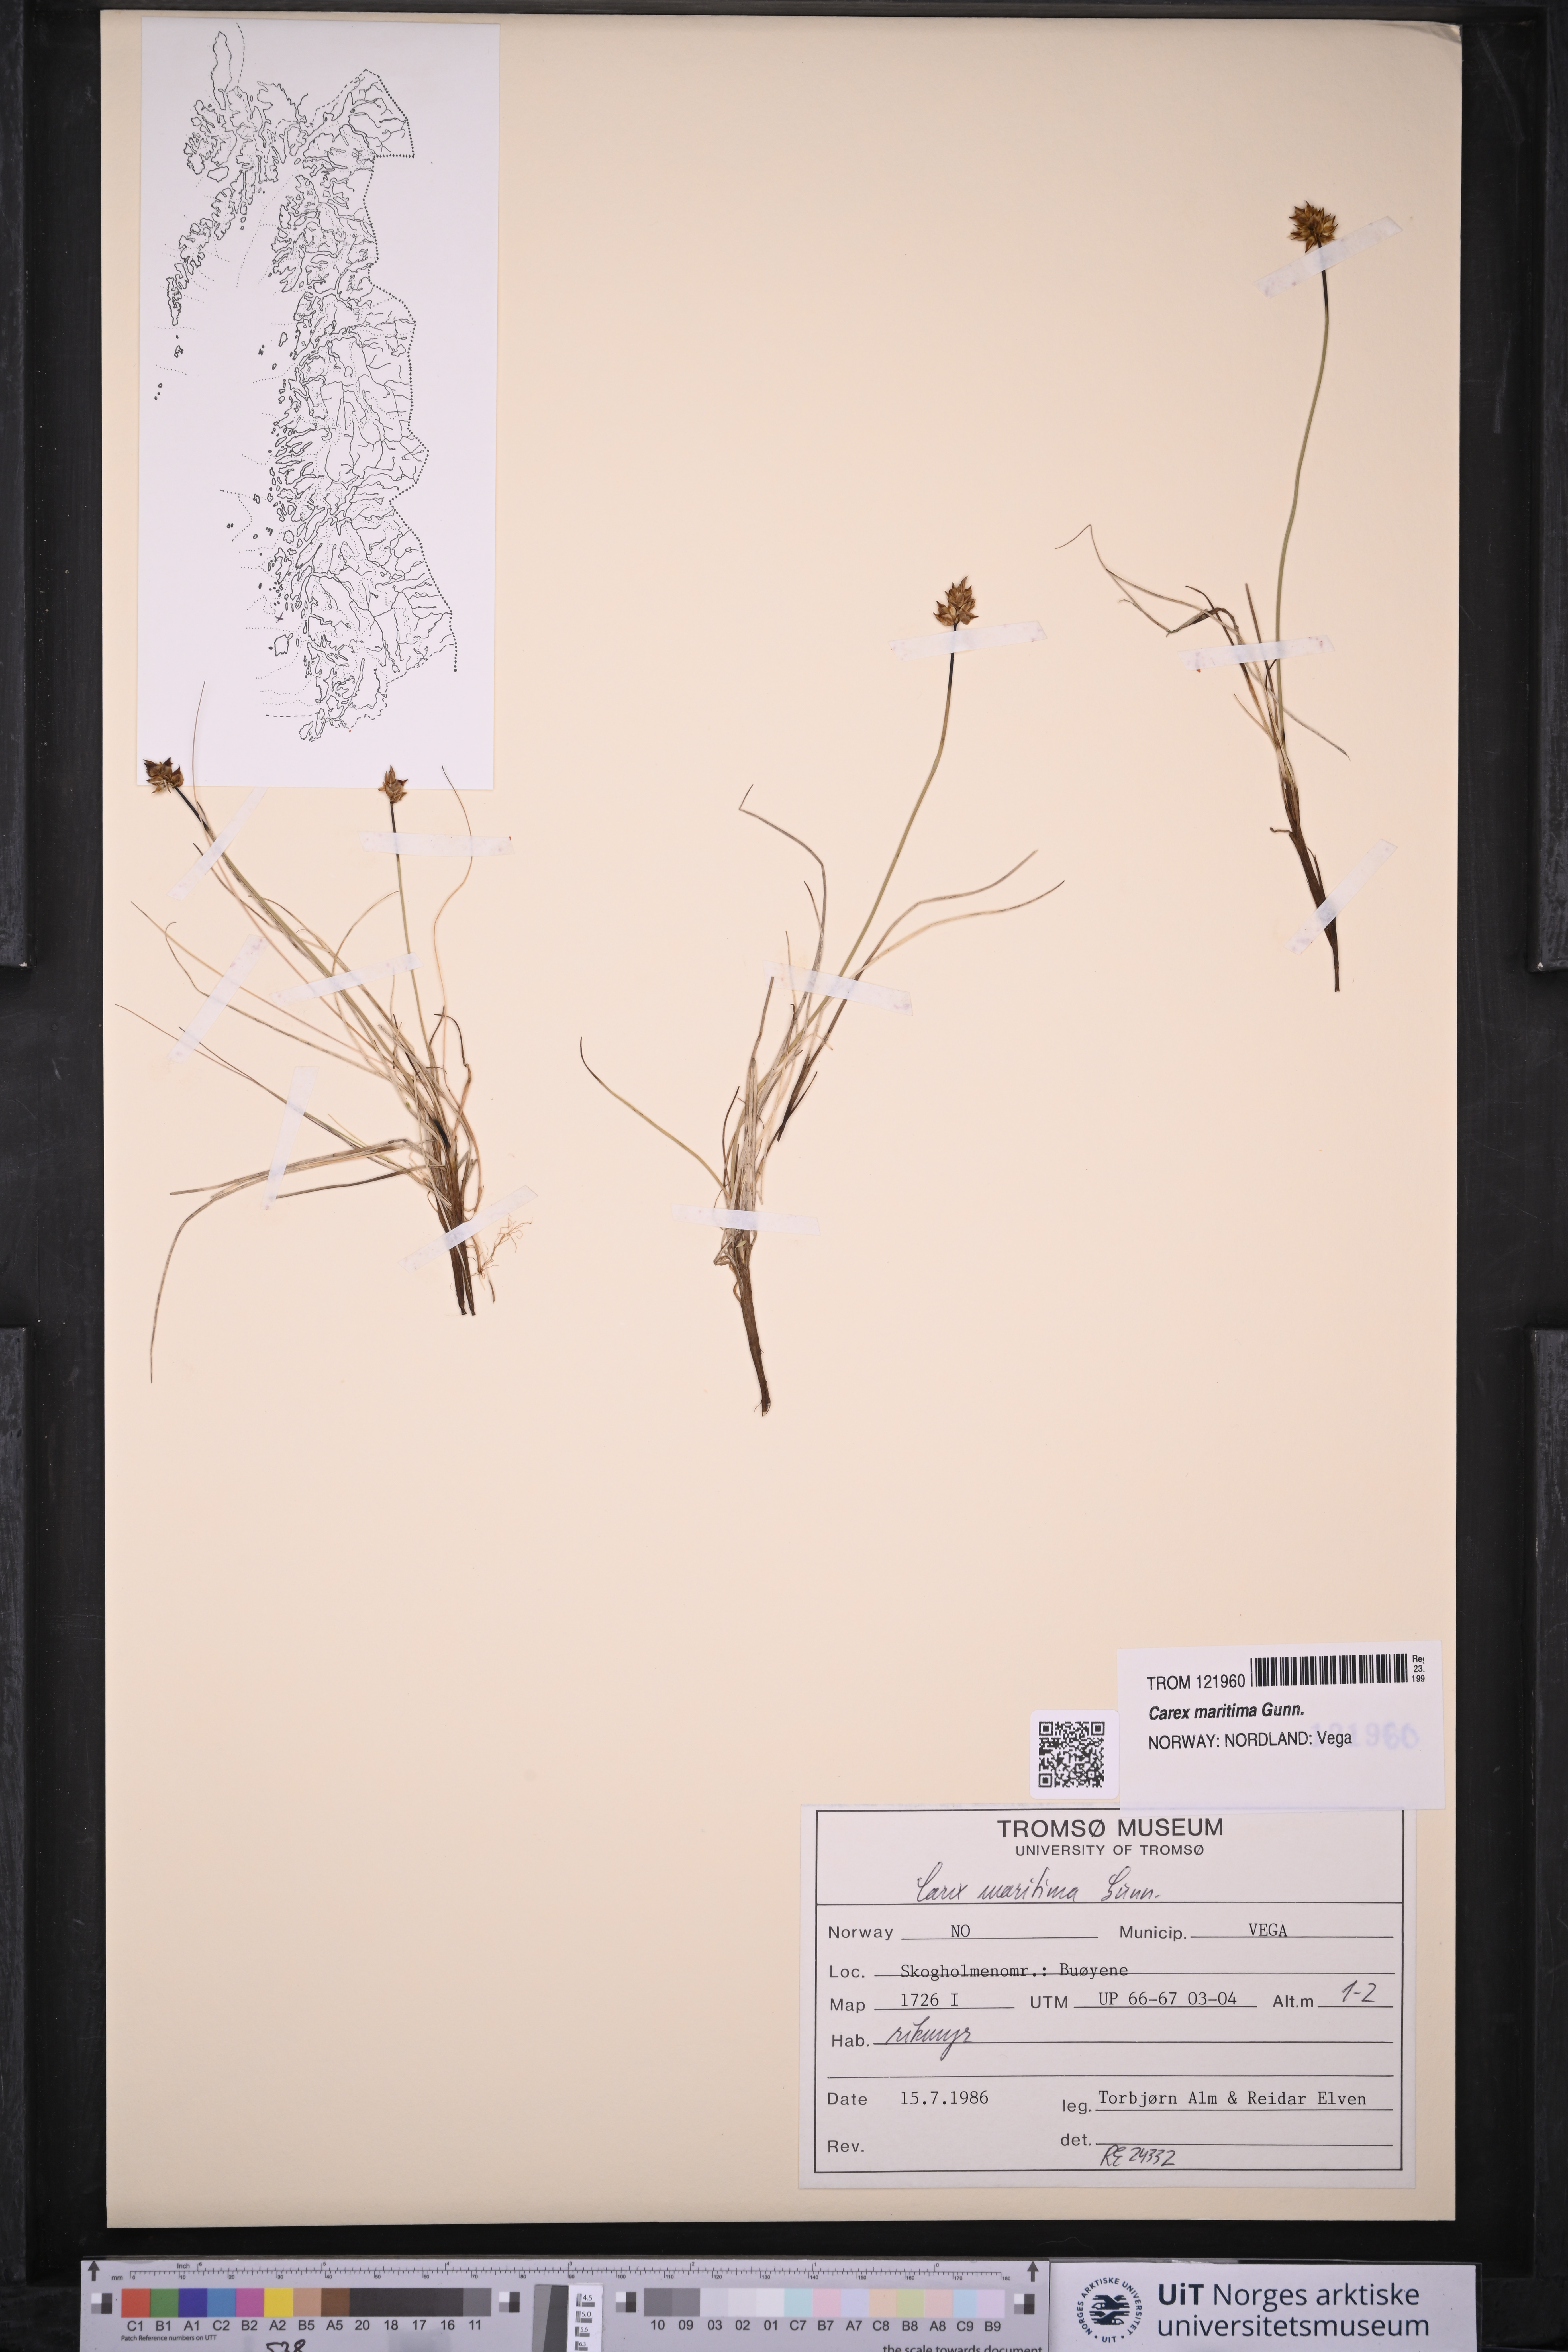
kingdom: Plantae
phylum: Tracheophyta
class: Liliopsida
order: Poales
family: Cyperaceae
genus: Carex
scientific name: Carex maritima
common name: Curved sedge
